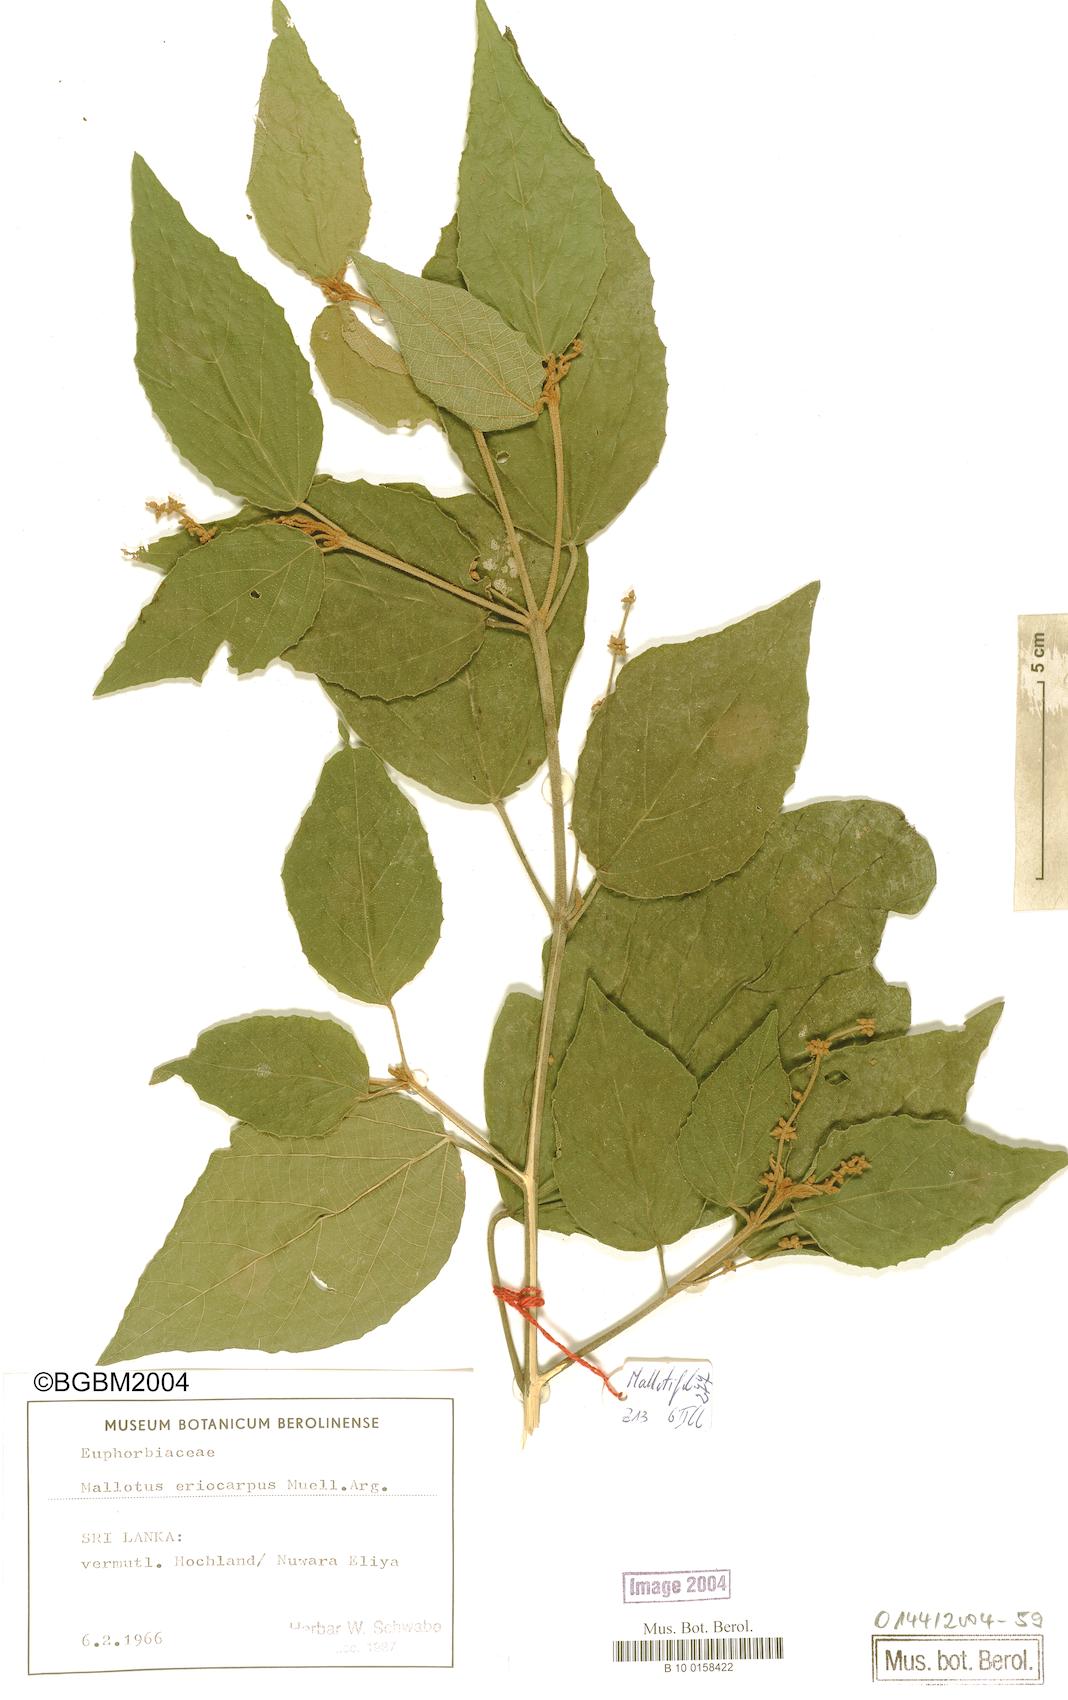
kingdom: Plantae
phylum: Tracheophyta
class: Magnoliopsida
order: Malpighiales
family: Euphorbiaceae
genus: Mallotus
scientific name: Mallotus eriocarpus
